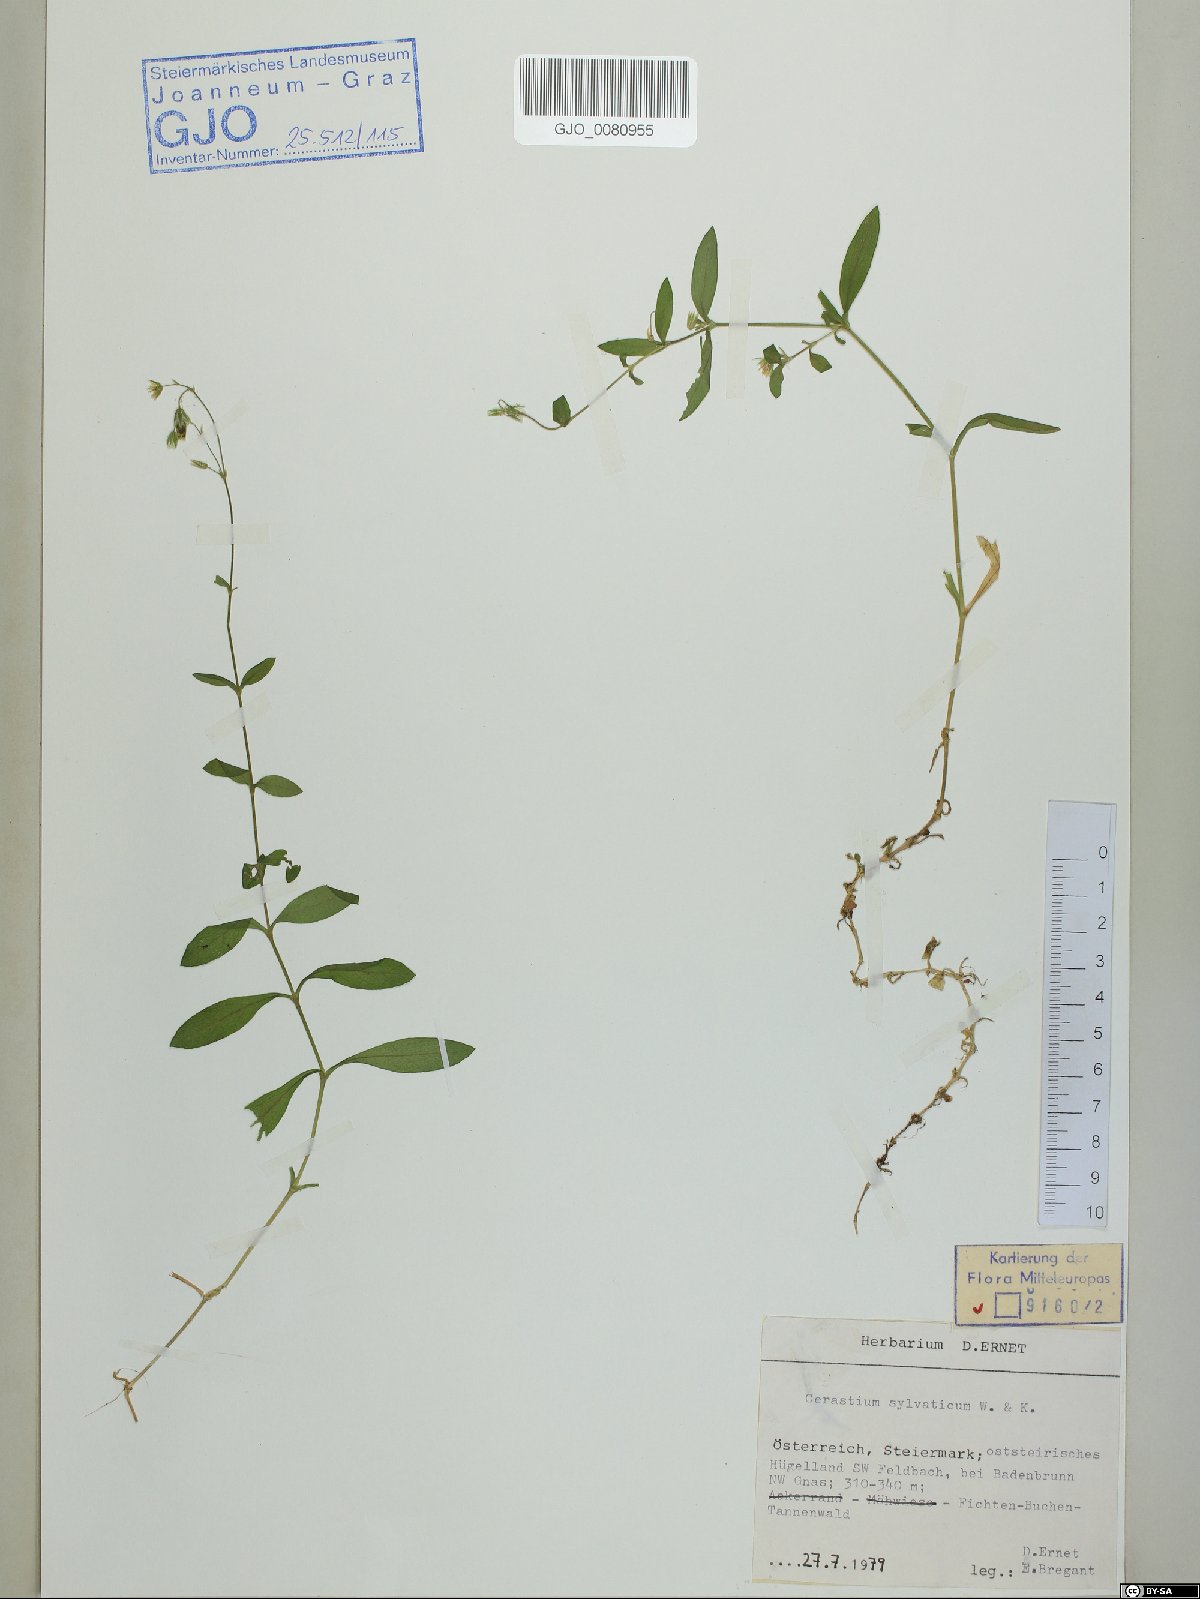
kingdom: Plantae
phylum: Tracheophyta
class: Magnoliopsida
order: Caryophyllales
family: Caryophyllaceae
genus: Cerastium
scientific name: Cerastium sylvaticum
